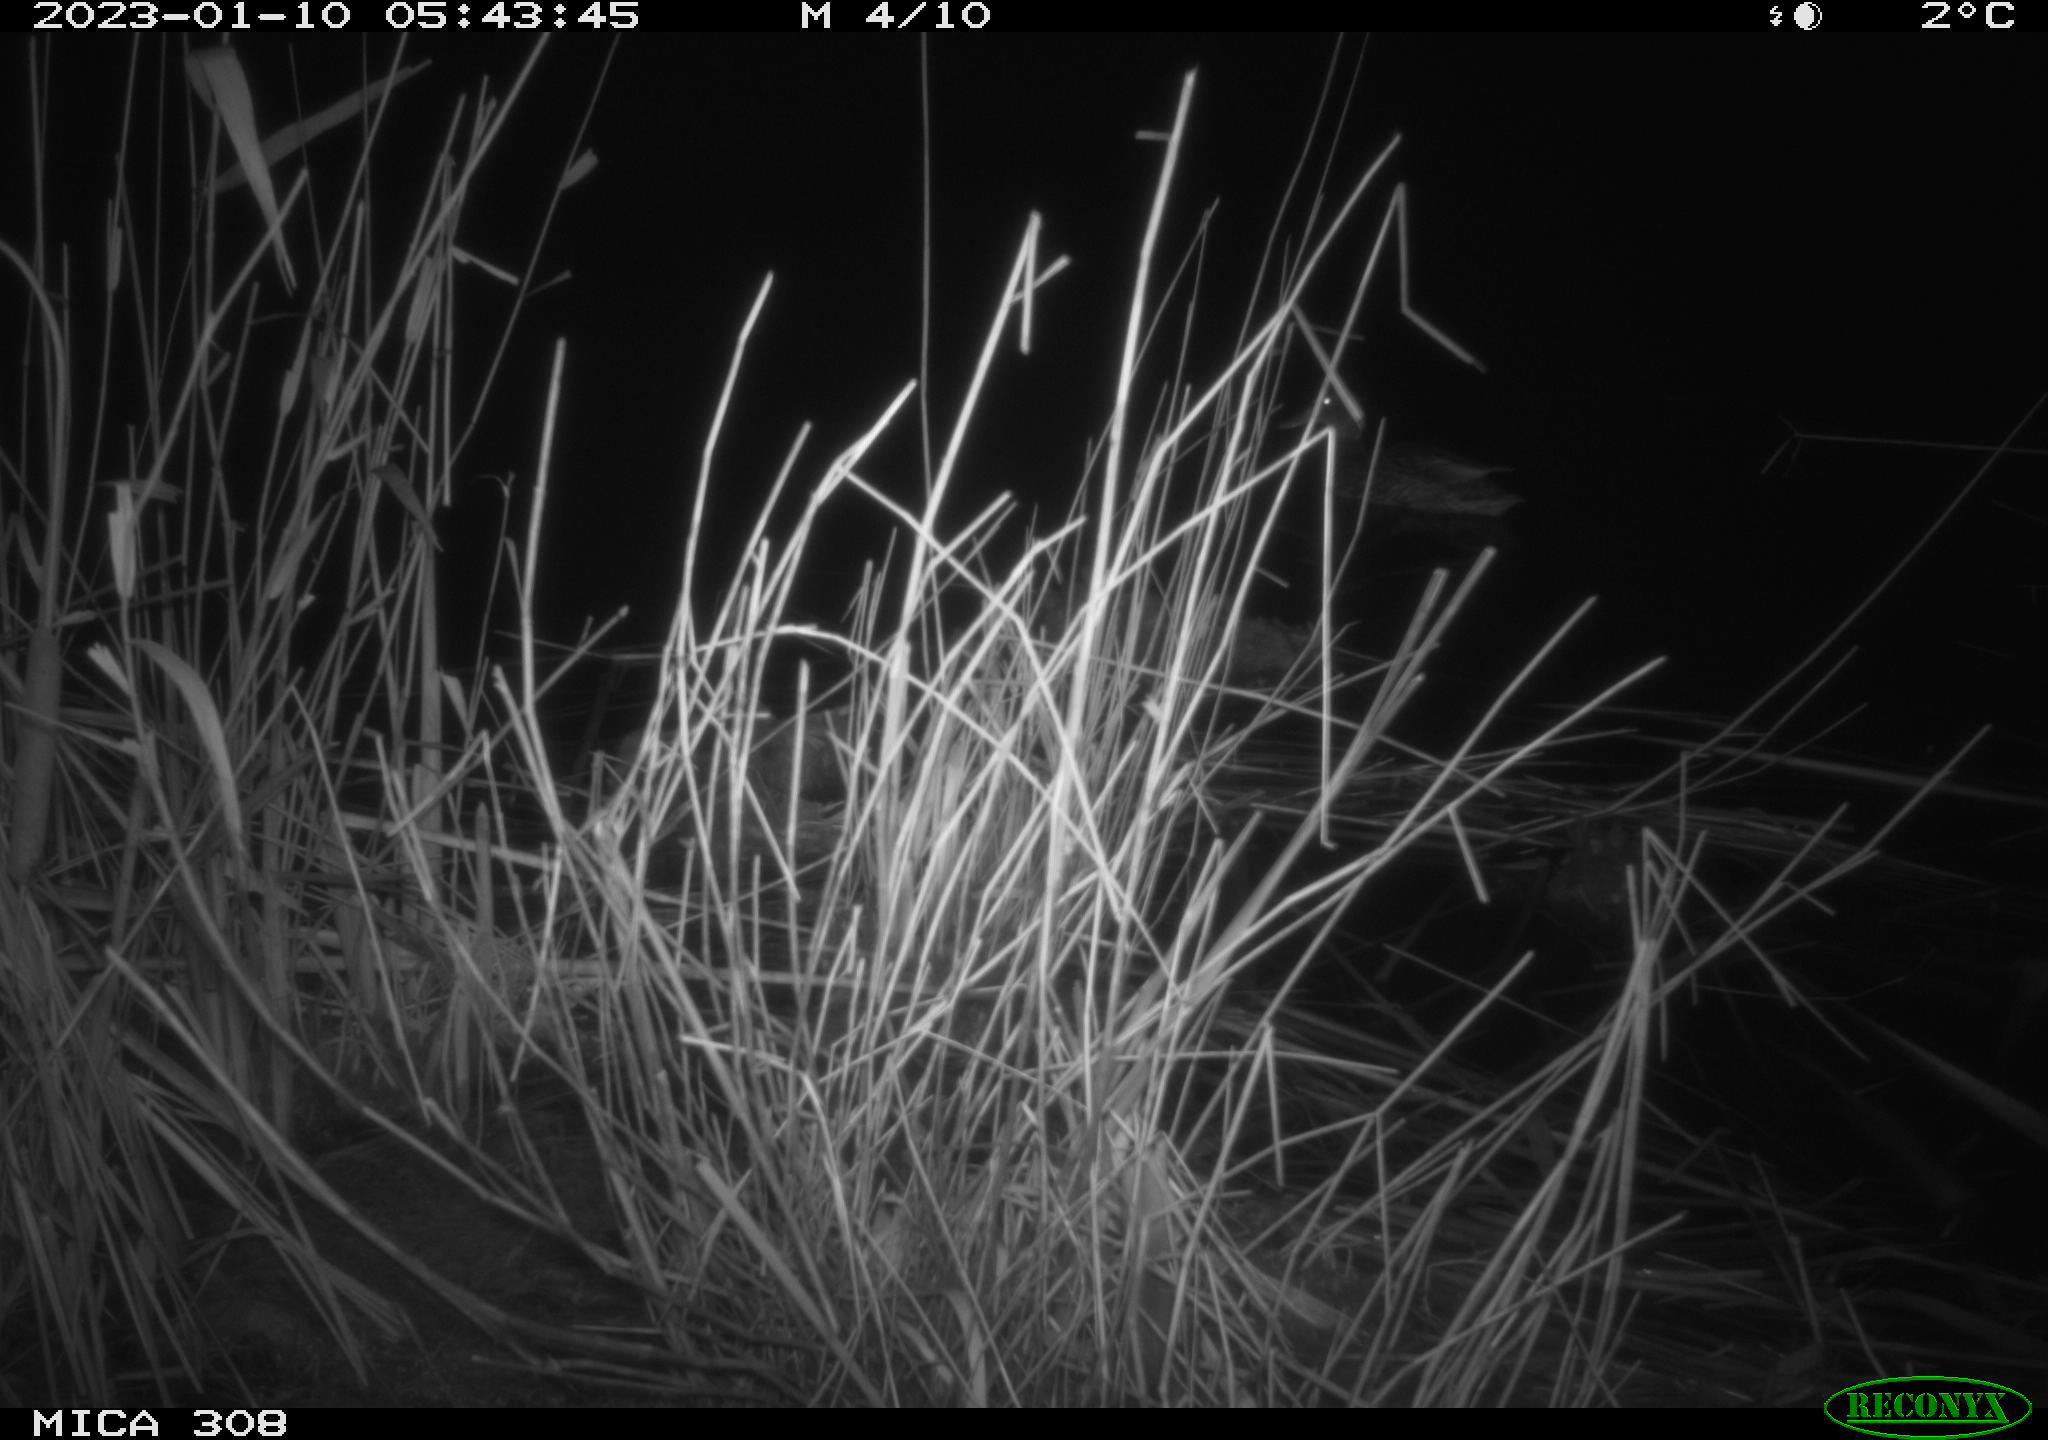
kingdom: Animalia
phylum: Chordata
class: Aves
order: Anseriformes
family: Anatidae
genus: Anas
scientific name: Anas
